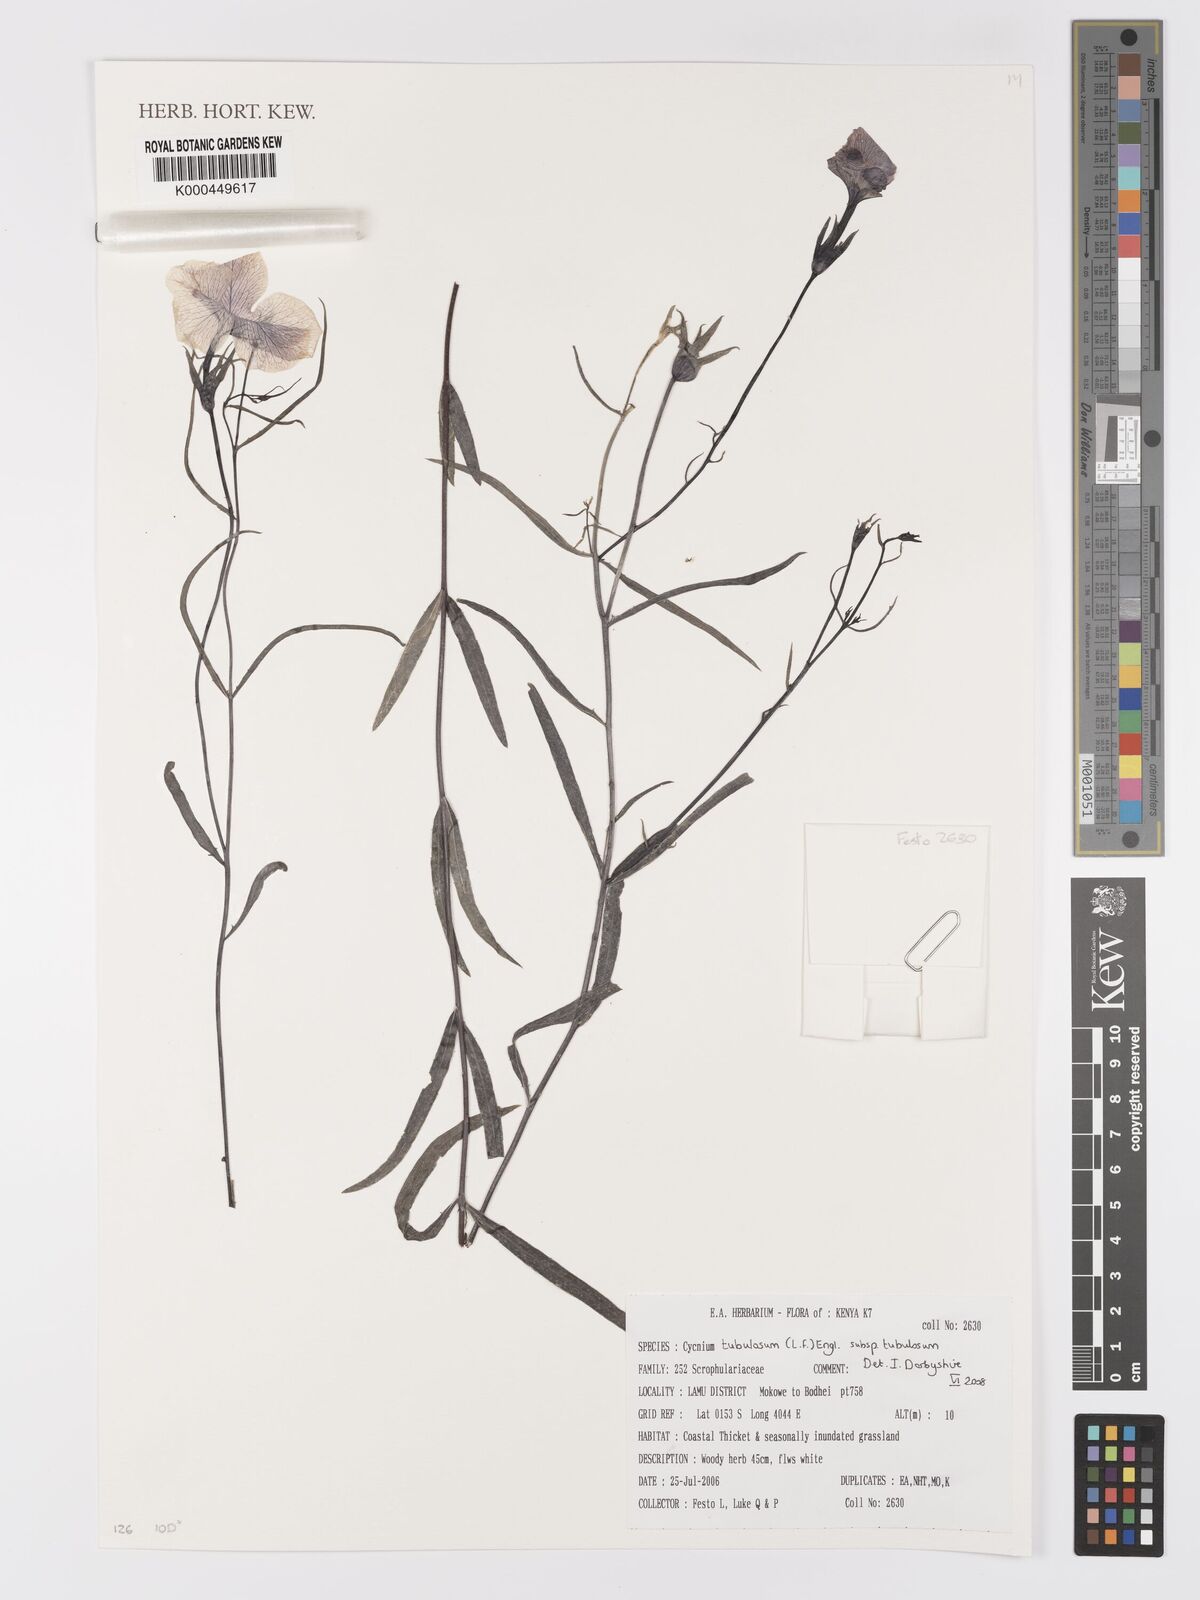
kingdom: Plantae
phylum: Tracheophyta
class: Magnoliopsida
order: Lamiales
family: Orobanchaceae
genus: Cycnium
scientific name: Cycnium tubulosum
